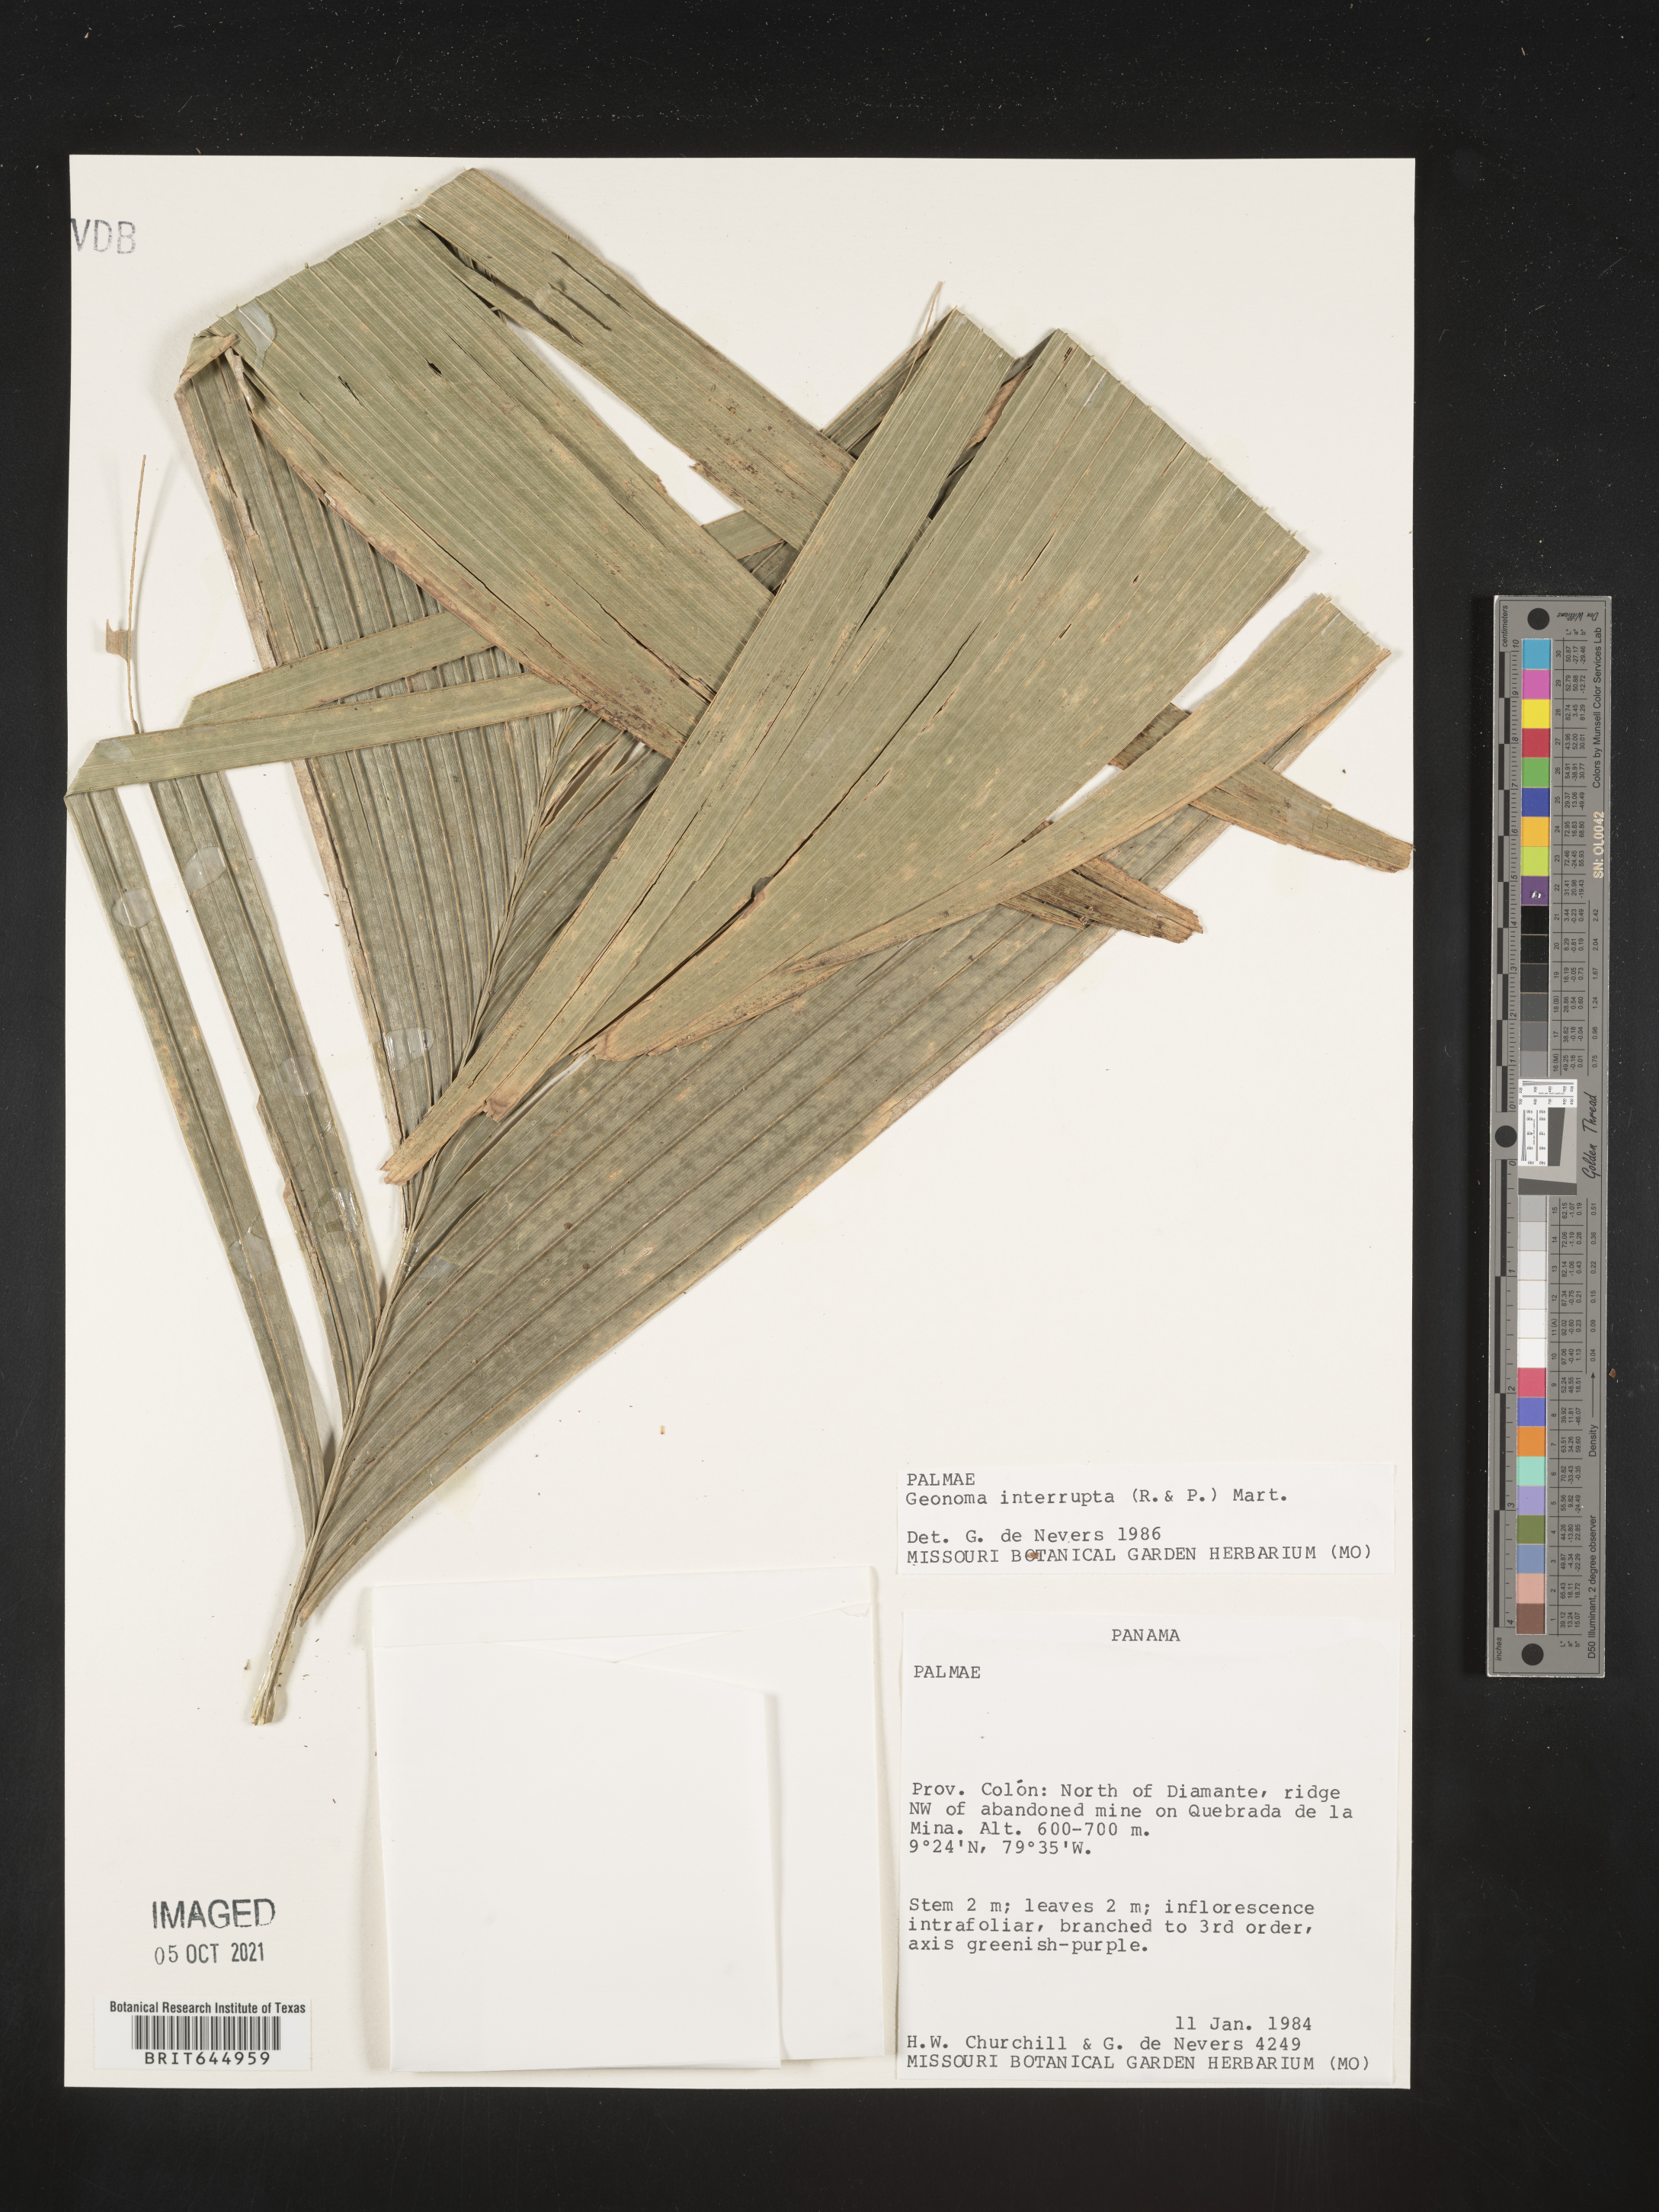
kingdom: Plantae
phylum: Tracheophyta
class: Liliopsida
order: Arecales
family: Arecaceae
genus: Geonoma
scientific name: Geonoma interrupta
